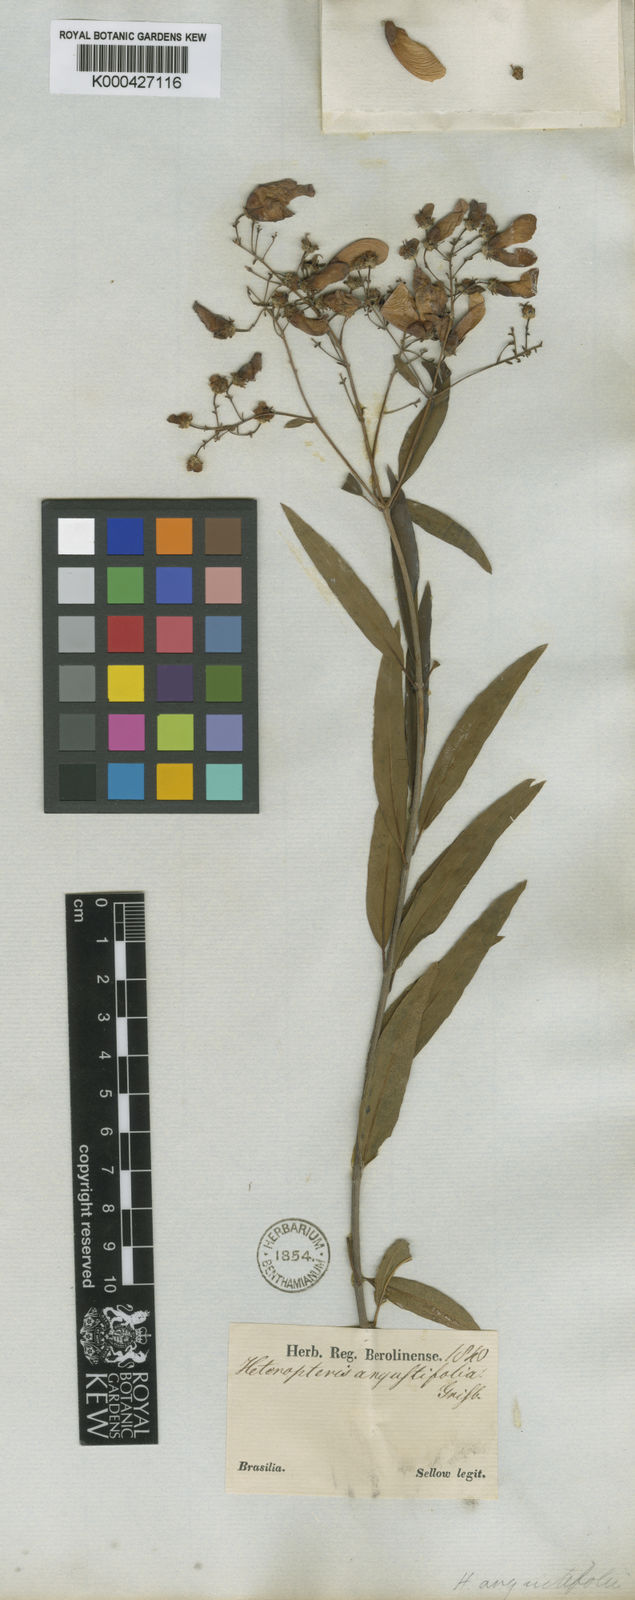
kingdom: Plantae
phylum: Tracheophyta
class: Magnoliopsida
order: Malpighiales
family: Malpighiaceae
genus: Heteropterys
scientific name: Heteropterys glabra
